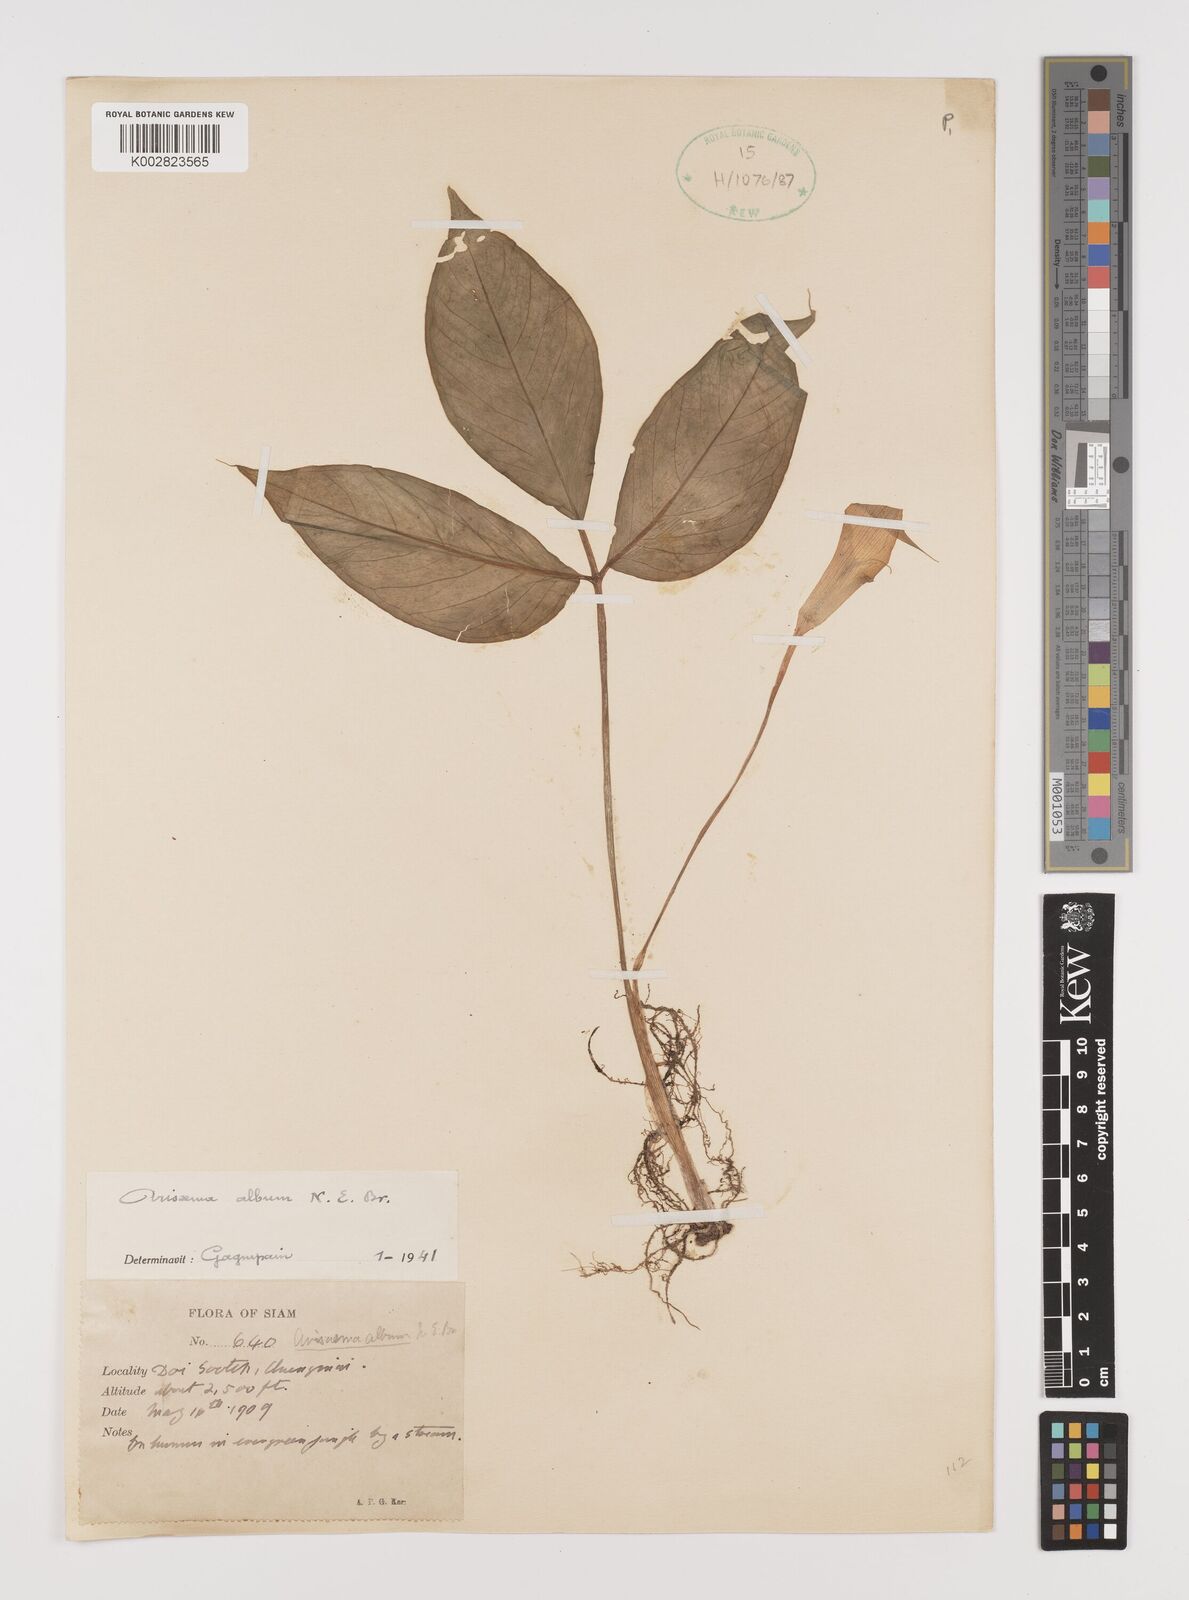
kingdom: Plantae
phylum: Tracheophyta
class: Liliopsida
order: Alismatales
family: Araceae
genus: Arisaema
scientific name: Arisaema album
